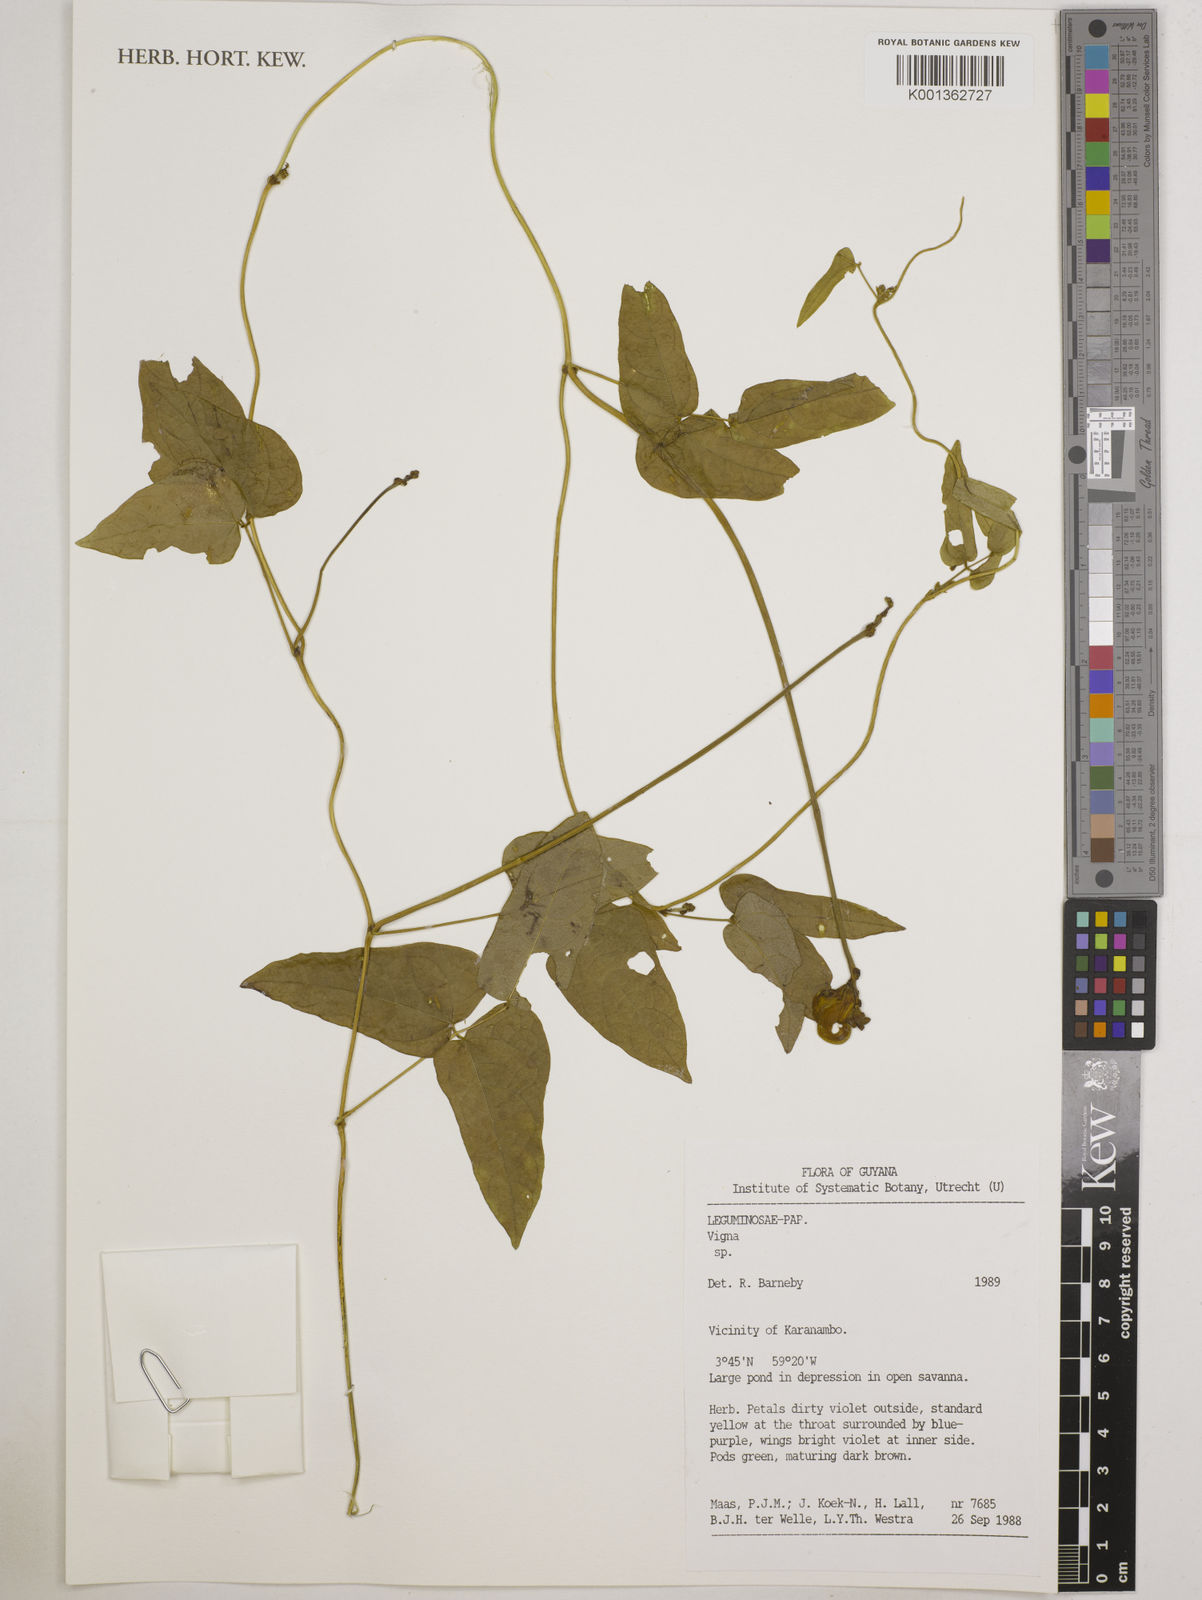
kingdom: Plantae
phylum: Tracheophyta
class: Magnoliopsida
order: Fabales
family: Fabaceae
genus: Vigna
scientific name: Vigna
